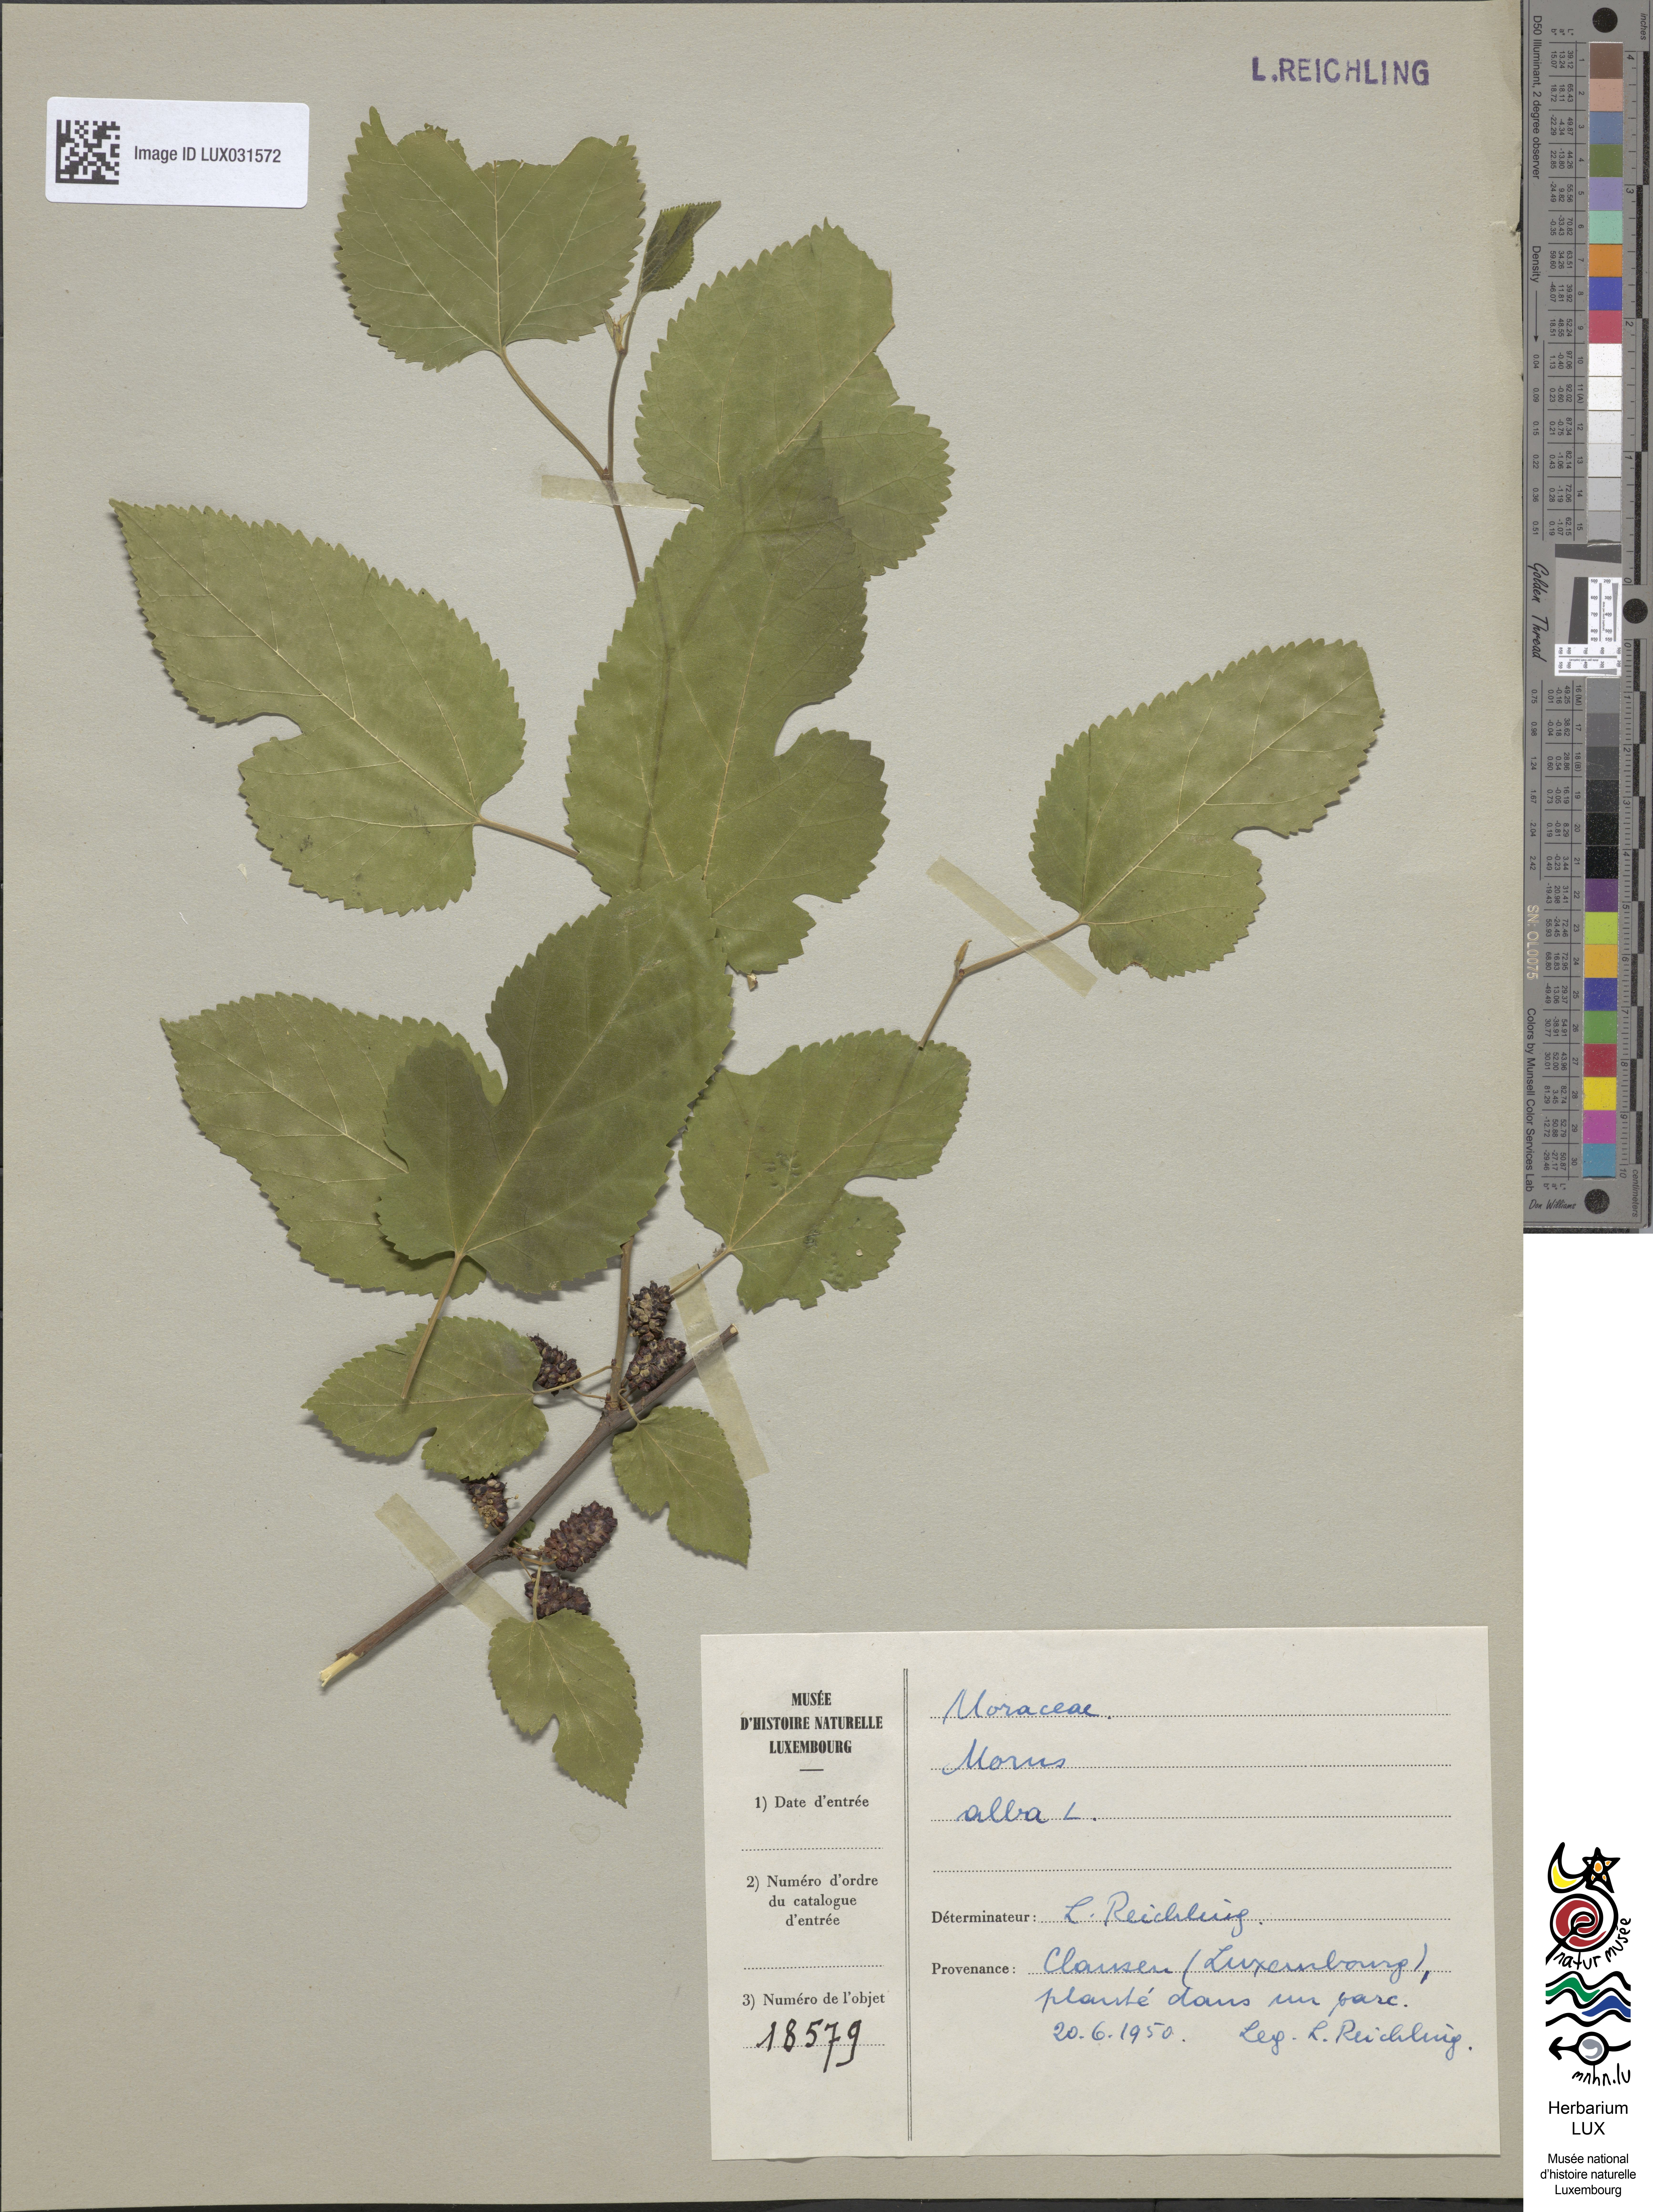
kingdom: Plantae
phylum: Tracheophyta
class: Magnoliopsida
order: Rosales
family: Moraceae
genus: Morus
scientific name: Morus alba
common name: White mulberry
